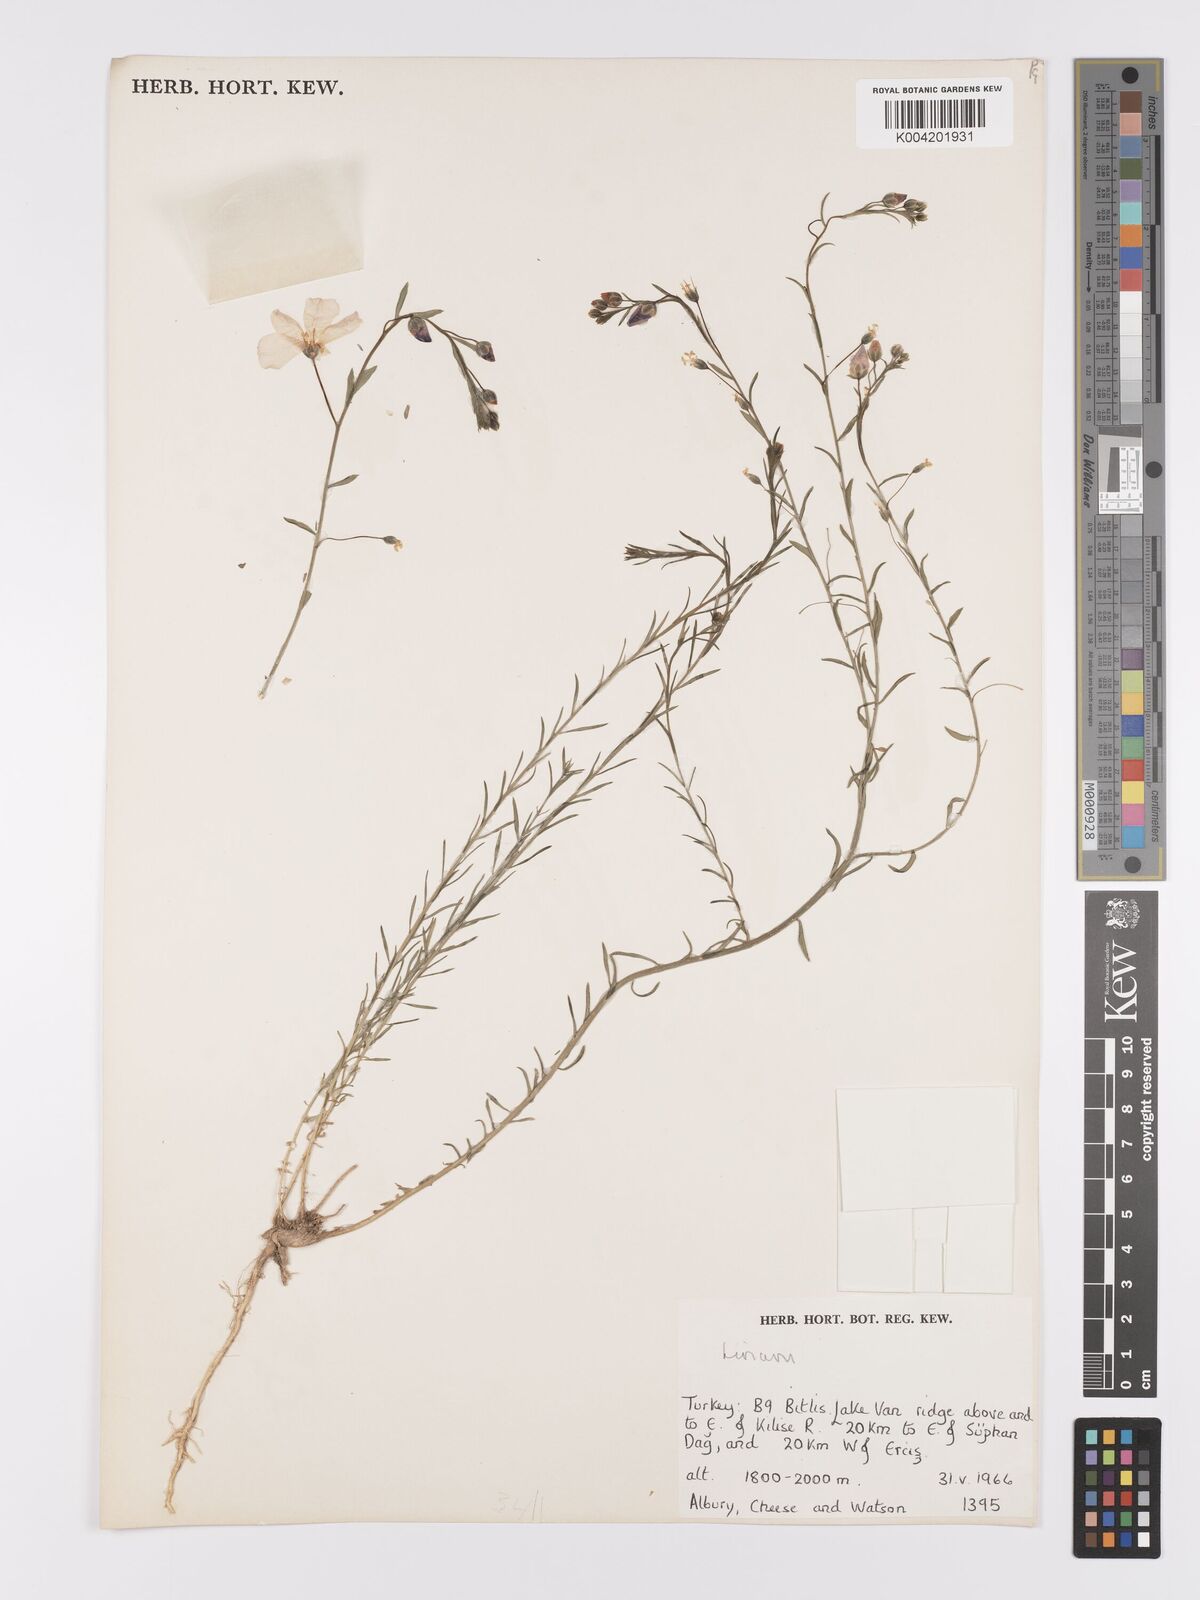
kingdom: Plantae
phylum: Tracheophyta
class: Magnoliopsida
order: Malpighiales
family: Linaceae
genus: Linum
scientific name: Linum
